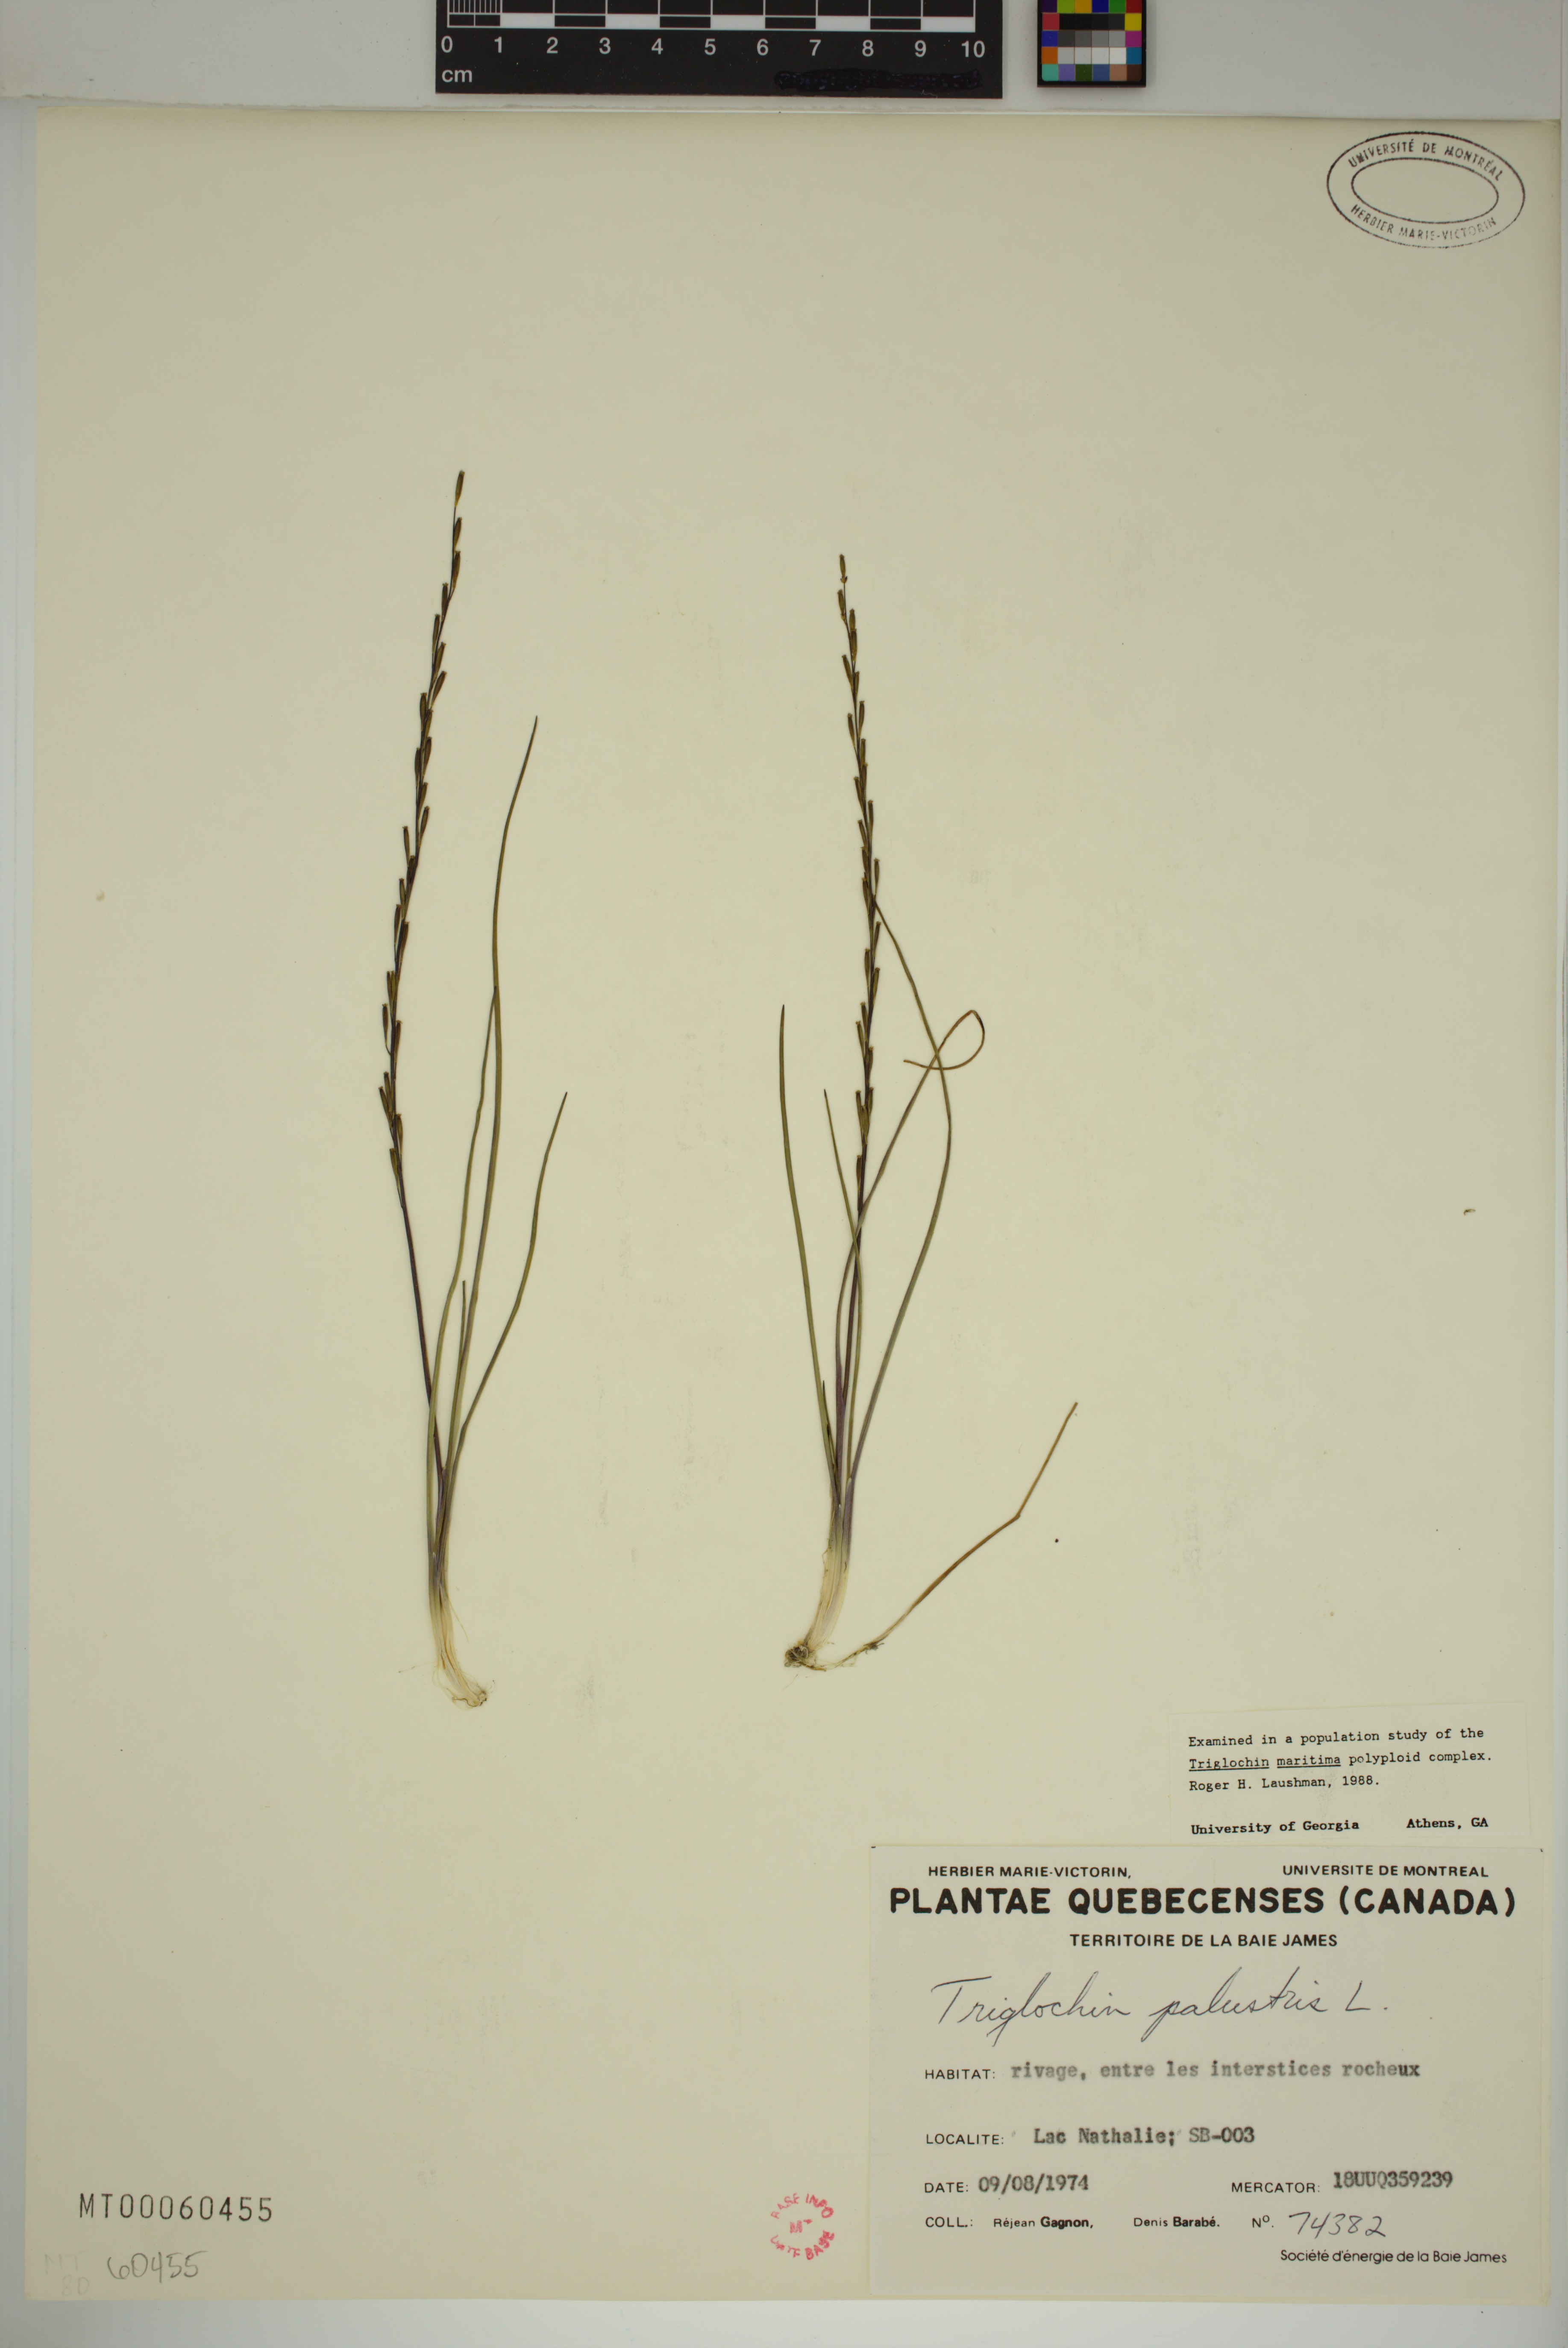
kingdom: Plantae
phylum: Tracheophyta
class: Liliopsida
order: Alismatales
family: Juncaginaceae
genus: Triglochin
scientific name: Triglochin palustris
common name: Marsh arrowgrass
